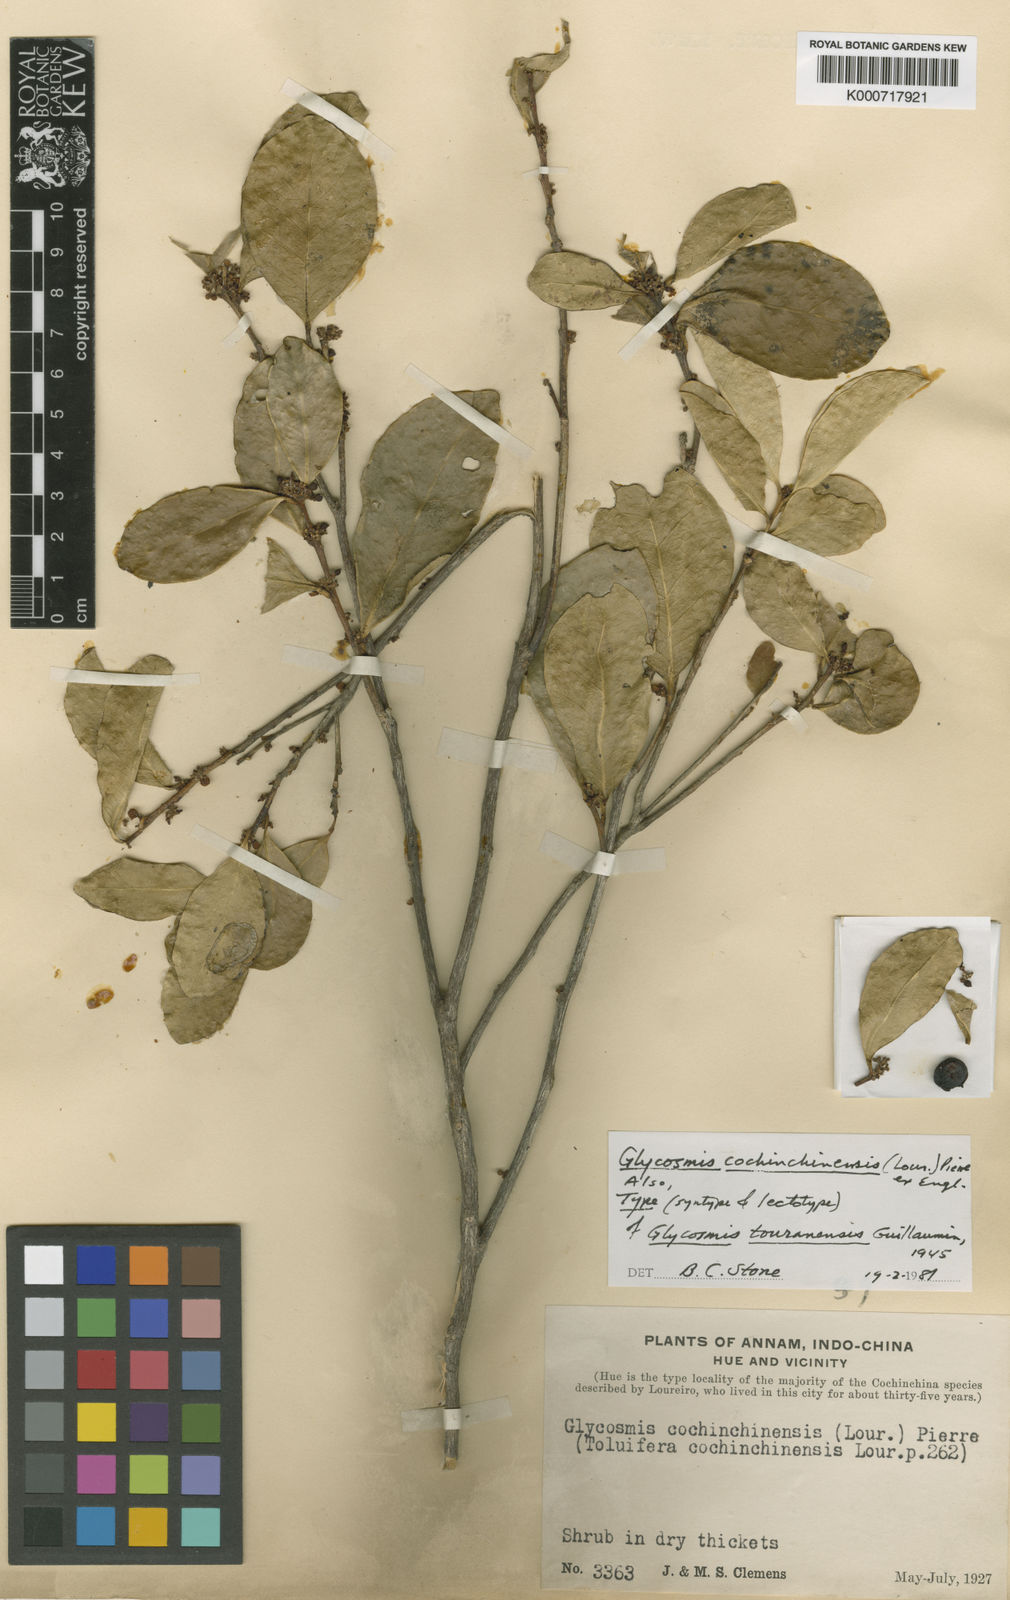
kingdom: Plantae
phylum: Tracheophyta
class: Magnoliopsida
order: Sapindales
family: Rutaceae
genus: Glycosmis
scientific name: Glycosmis
